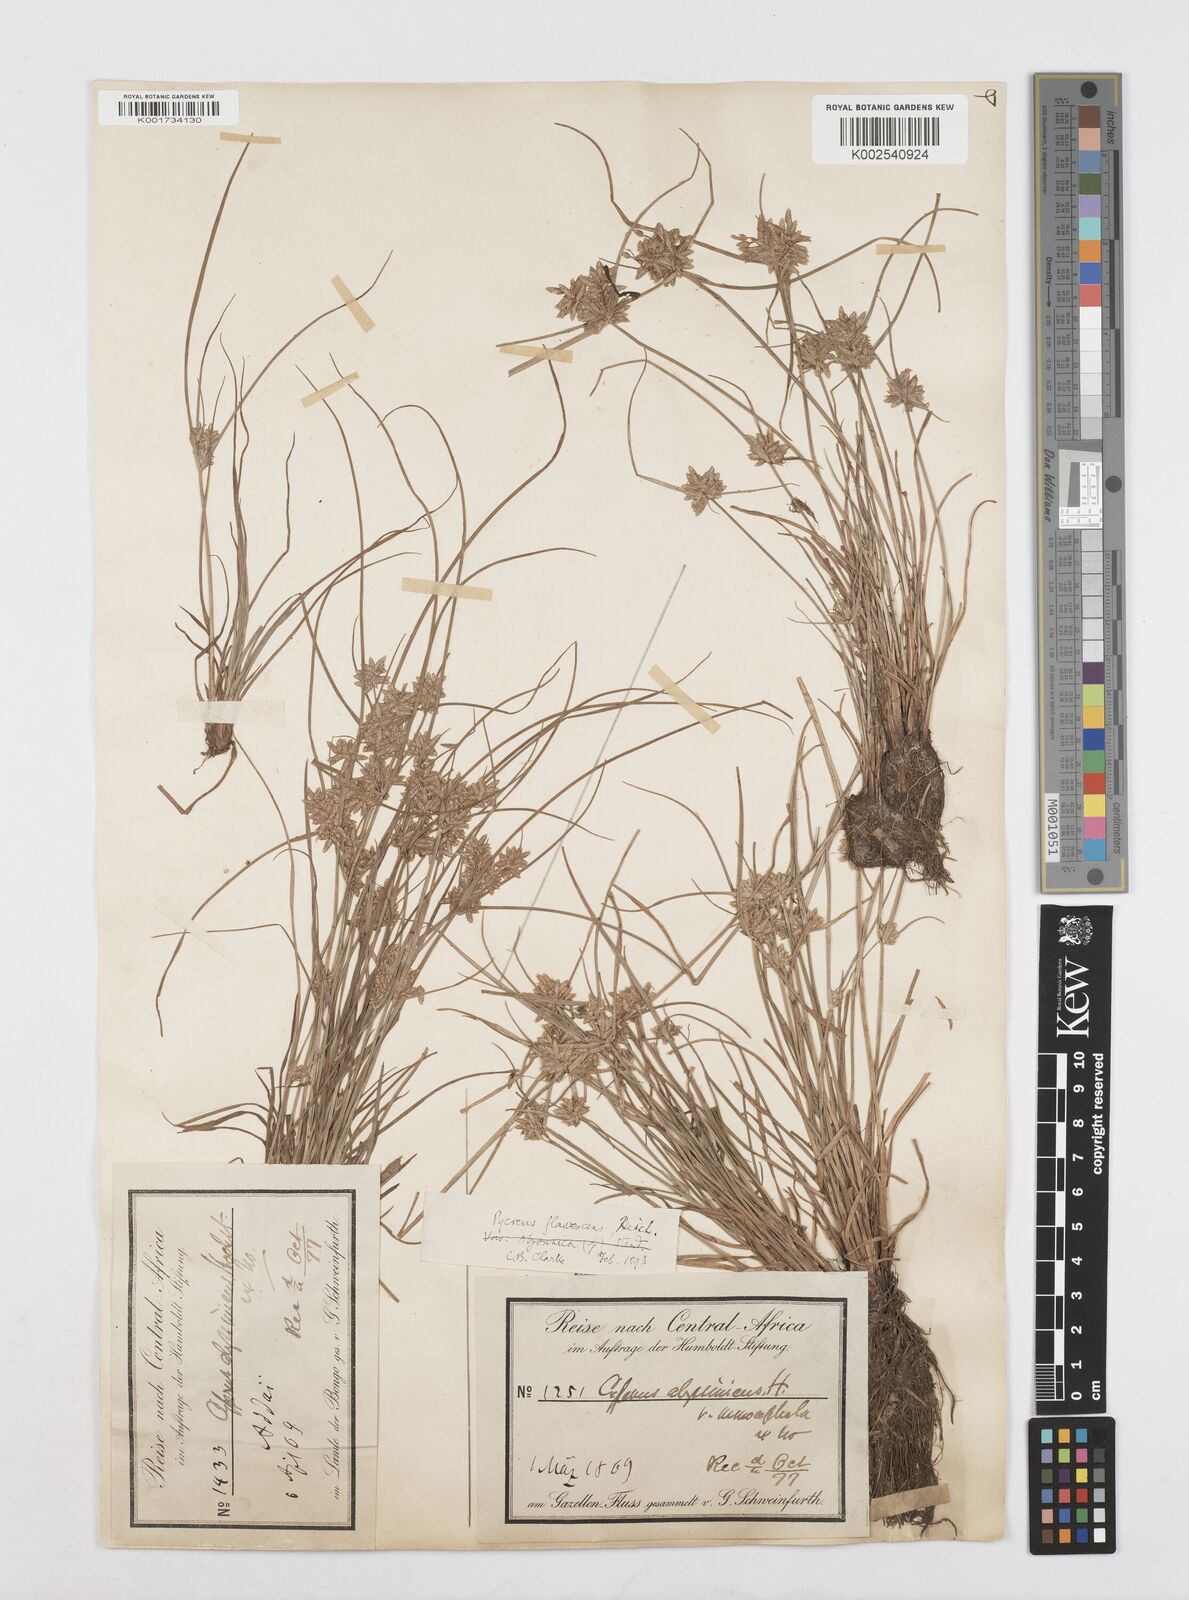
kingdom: Plantae
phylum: Tracheophyta
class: Liliopsida
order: Poales
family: Cyperaceae
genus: Cyperus
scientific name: Cyperus flavescens
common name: Yellow galingale
